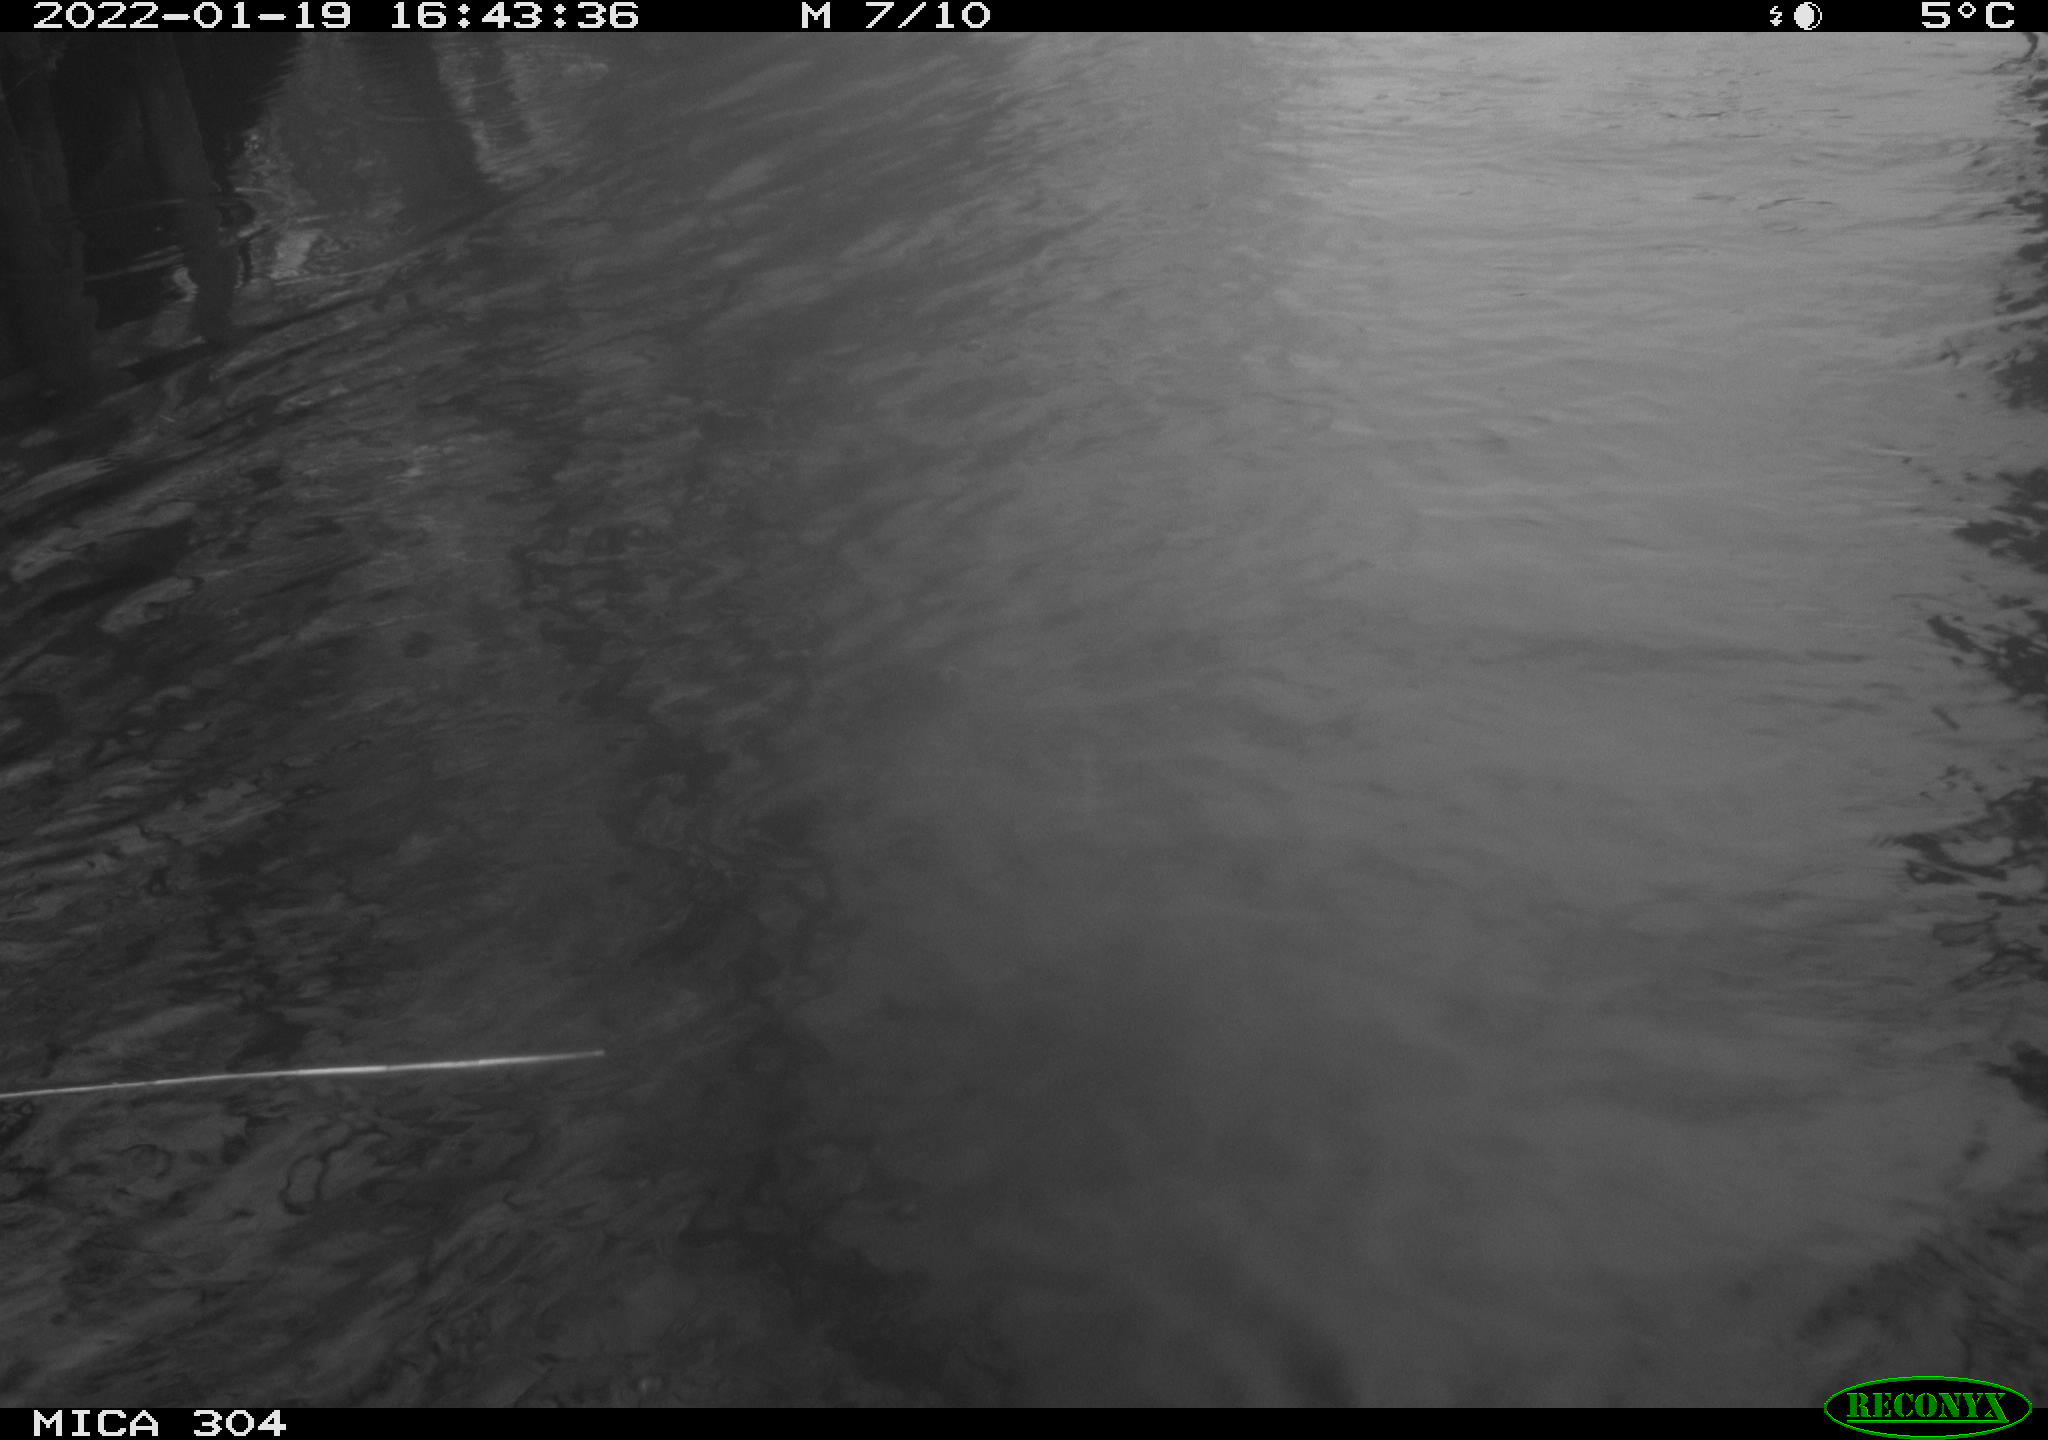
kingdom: Animalia
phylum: Chordata
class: Aves
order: Anseriformes
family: Anatidae
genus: Anas
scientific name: Anas
